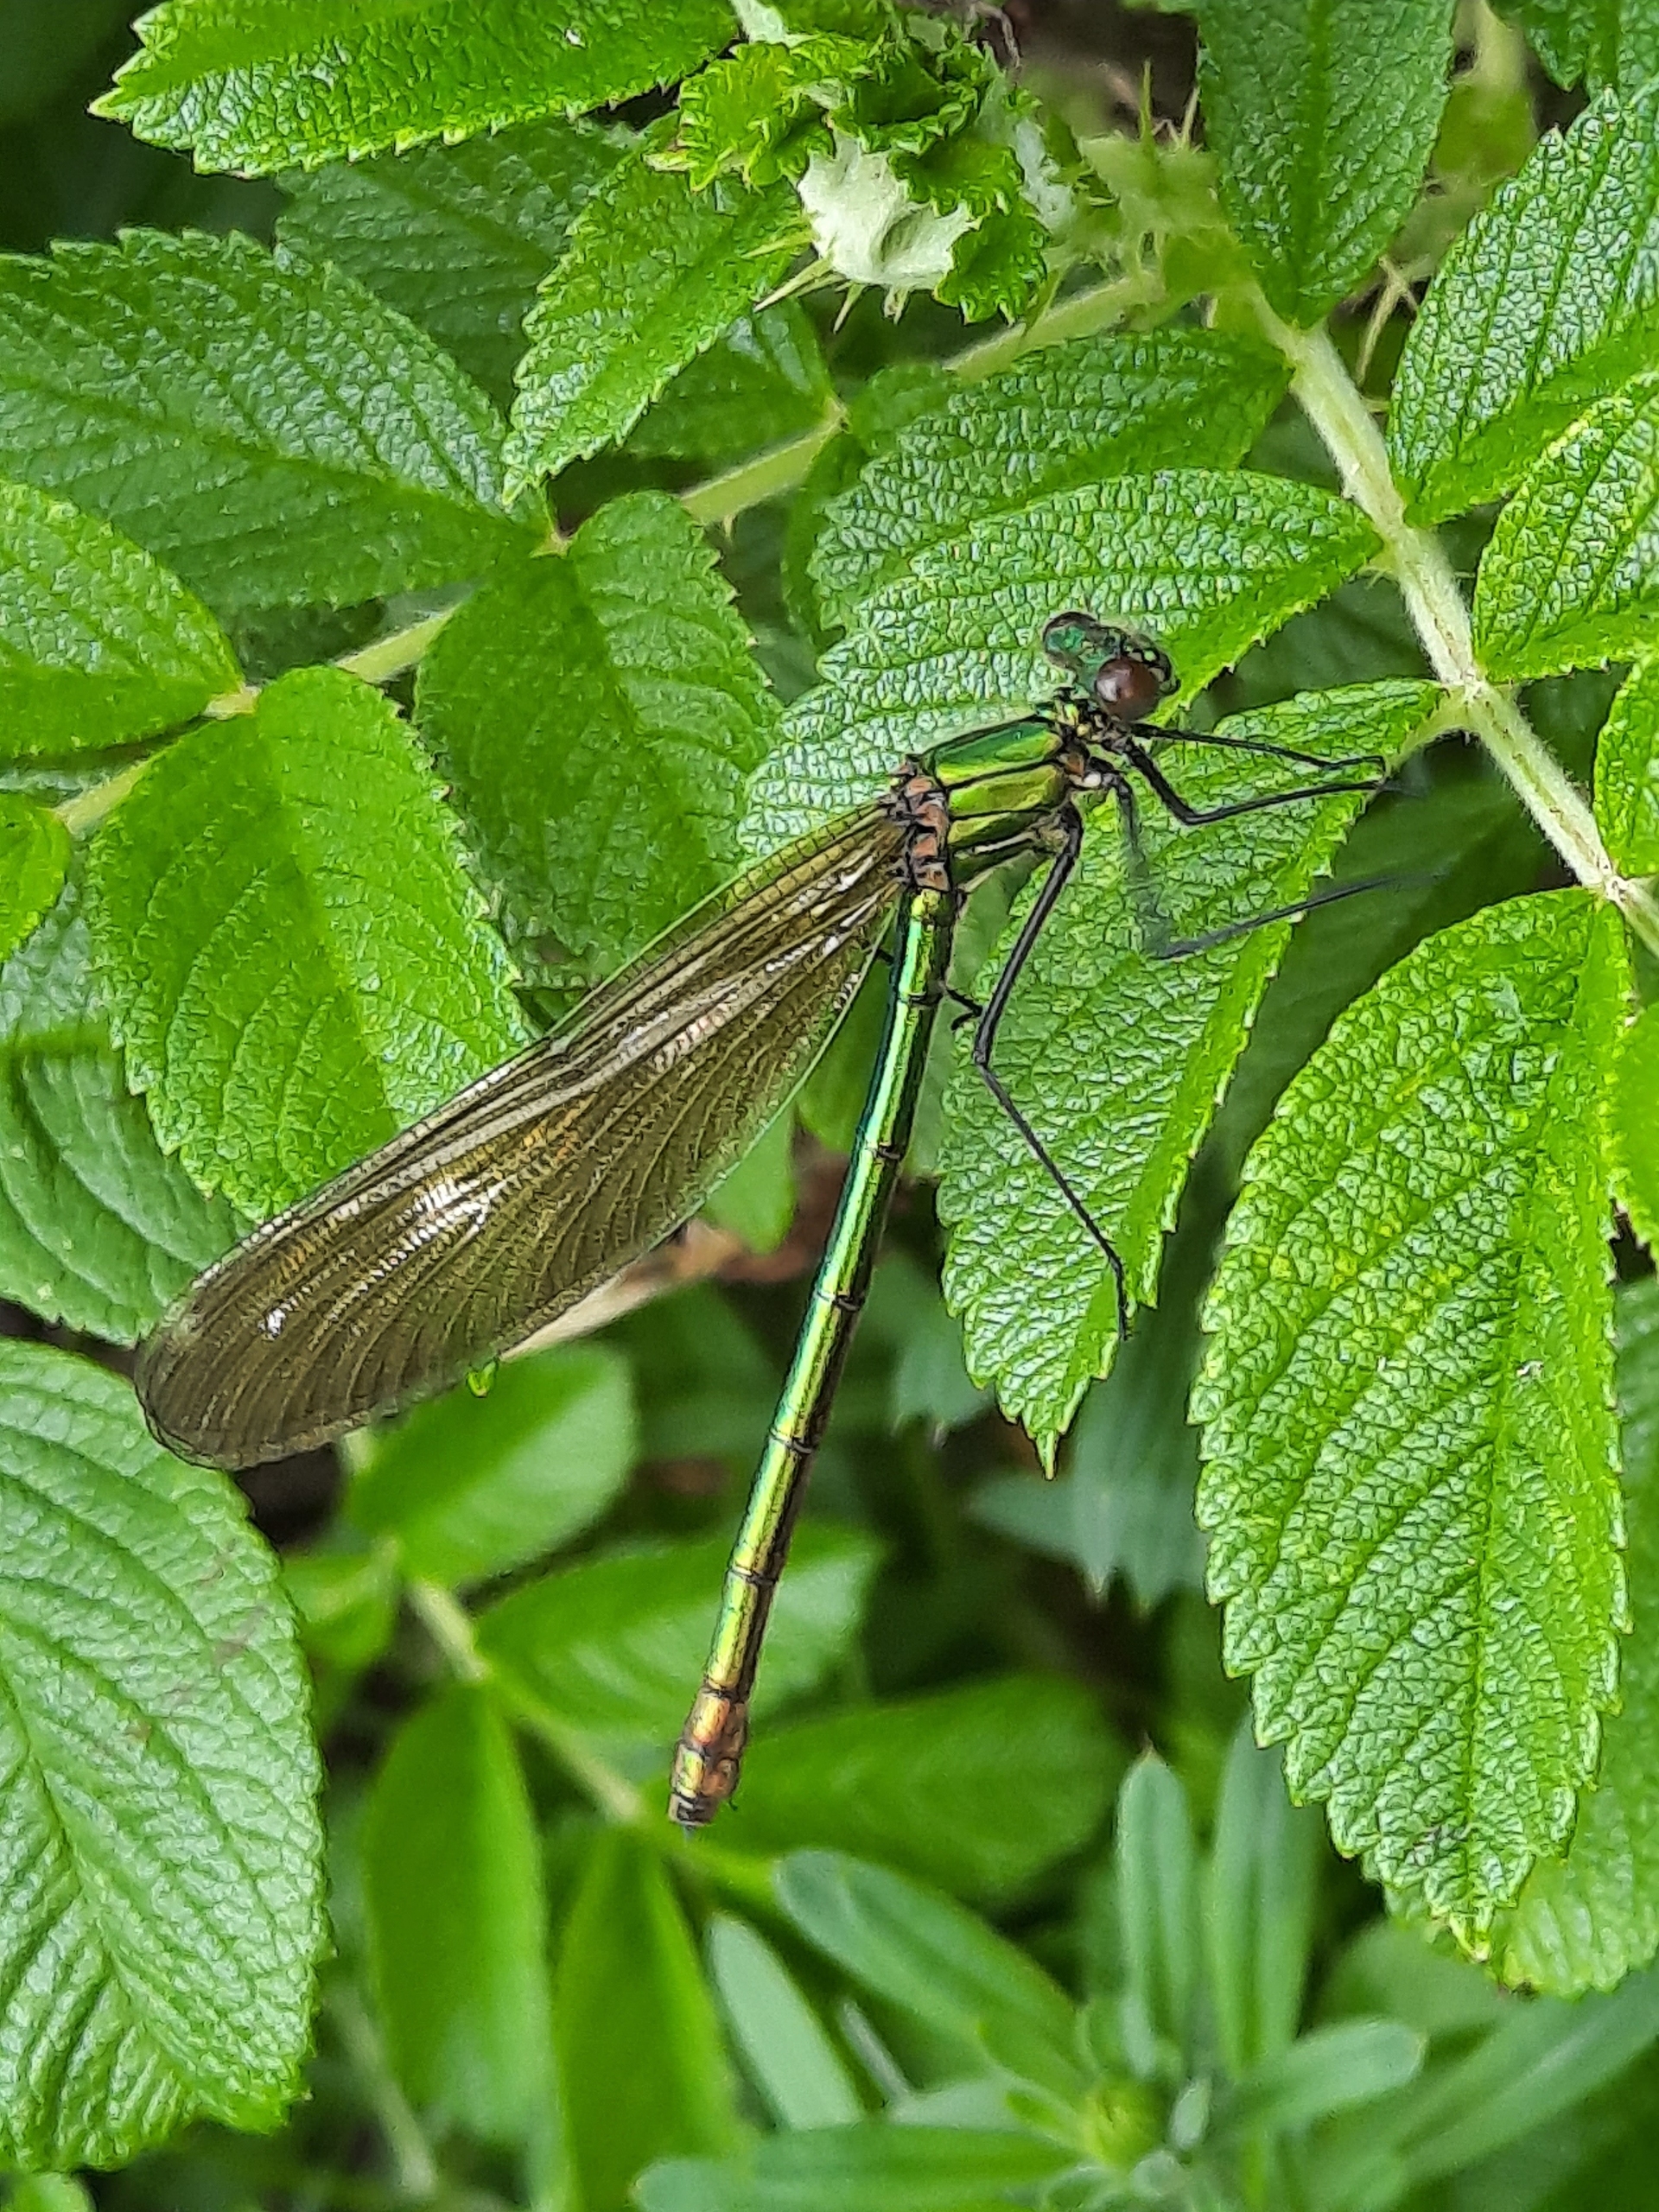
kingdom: Animalia
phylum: Arthropoda
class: Insecta
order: Odonata
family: Calopterygidae
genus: Calopteryx
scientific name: Calopteryx splendens
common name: Blåbåndet pragtvandnymfe
